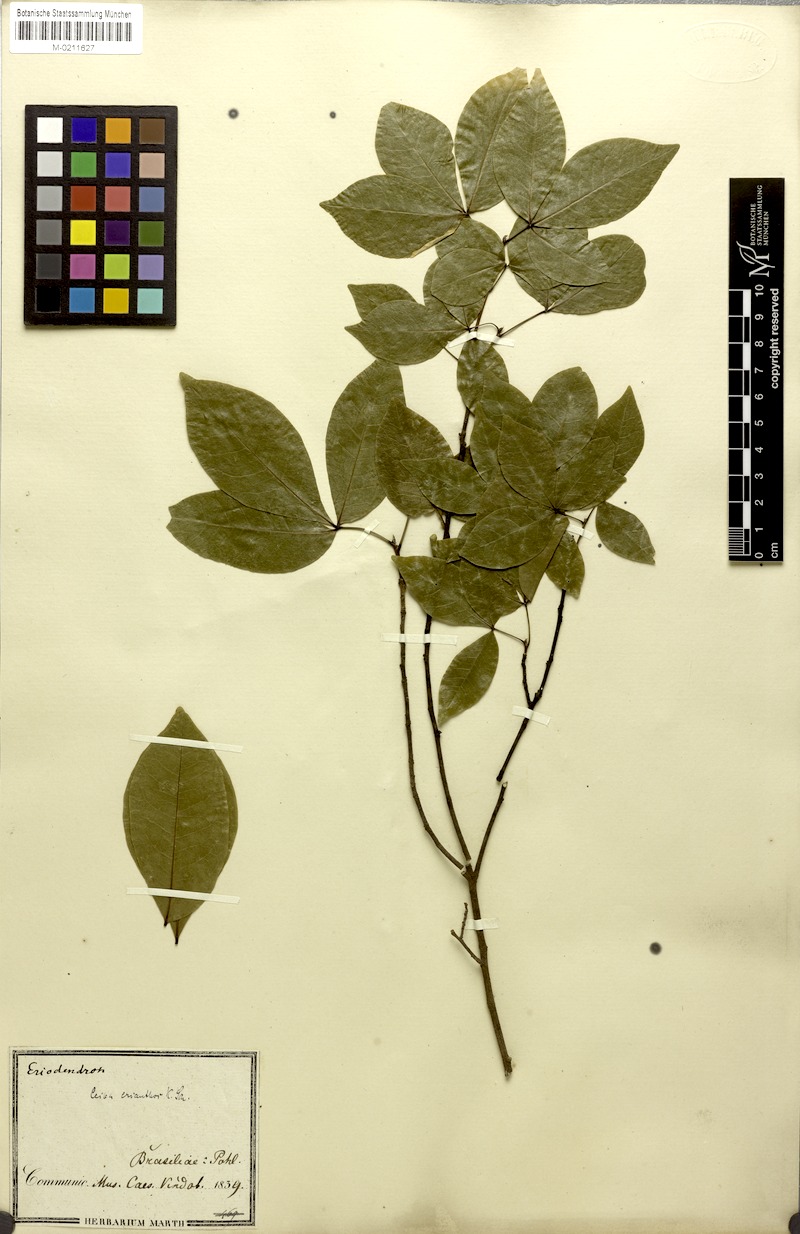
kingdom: Plantae
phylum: Tracheophyta
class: Magnoliopsida
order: Malvales
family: Malvaceae
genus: Ceiba
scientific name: Ceiba erianthos
